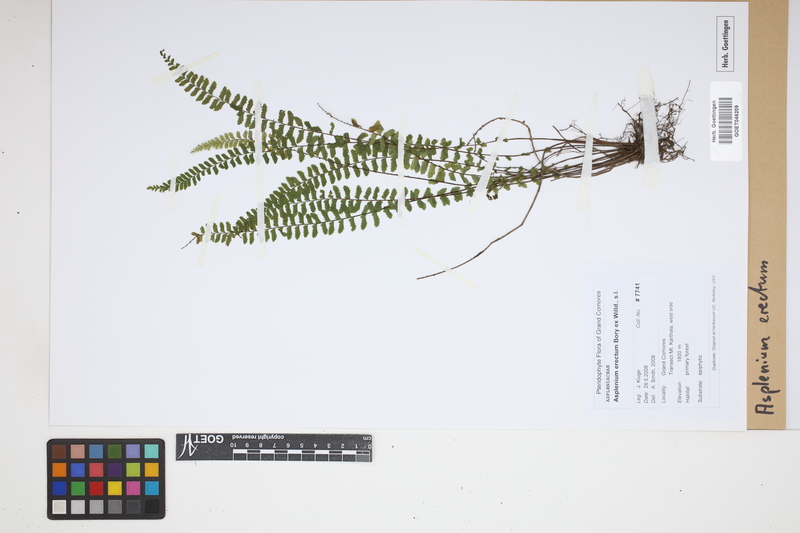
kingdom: Plantae
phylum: Tracheophyta
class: Polypodiopsida
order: Polypodiales
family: Aspleniaceae
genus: Asplenium
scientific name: Asplenium erectum
